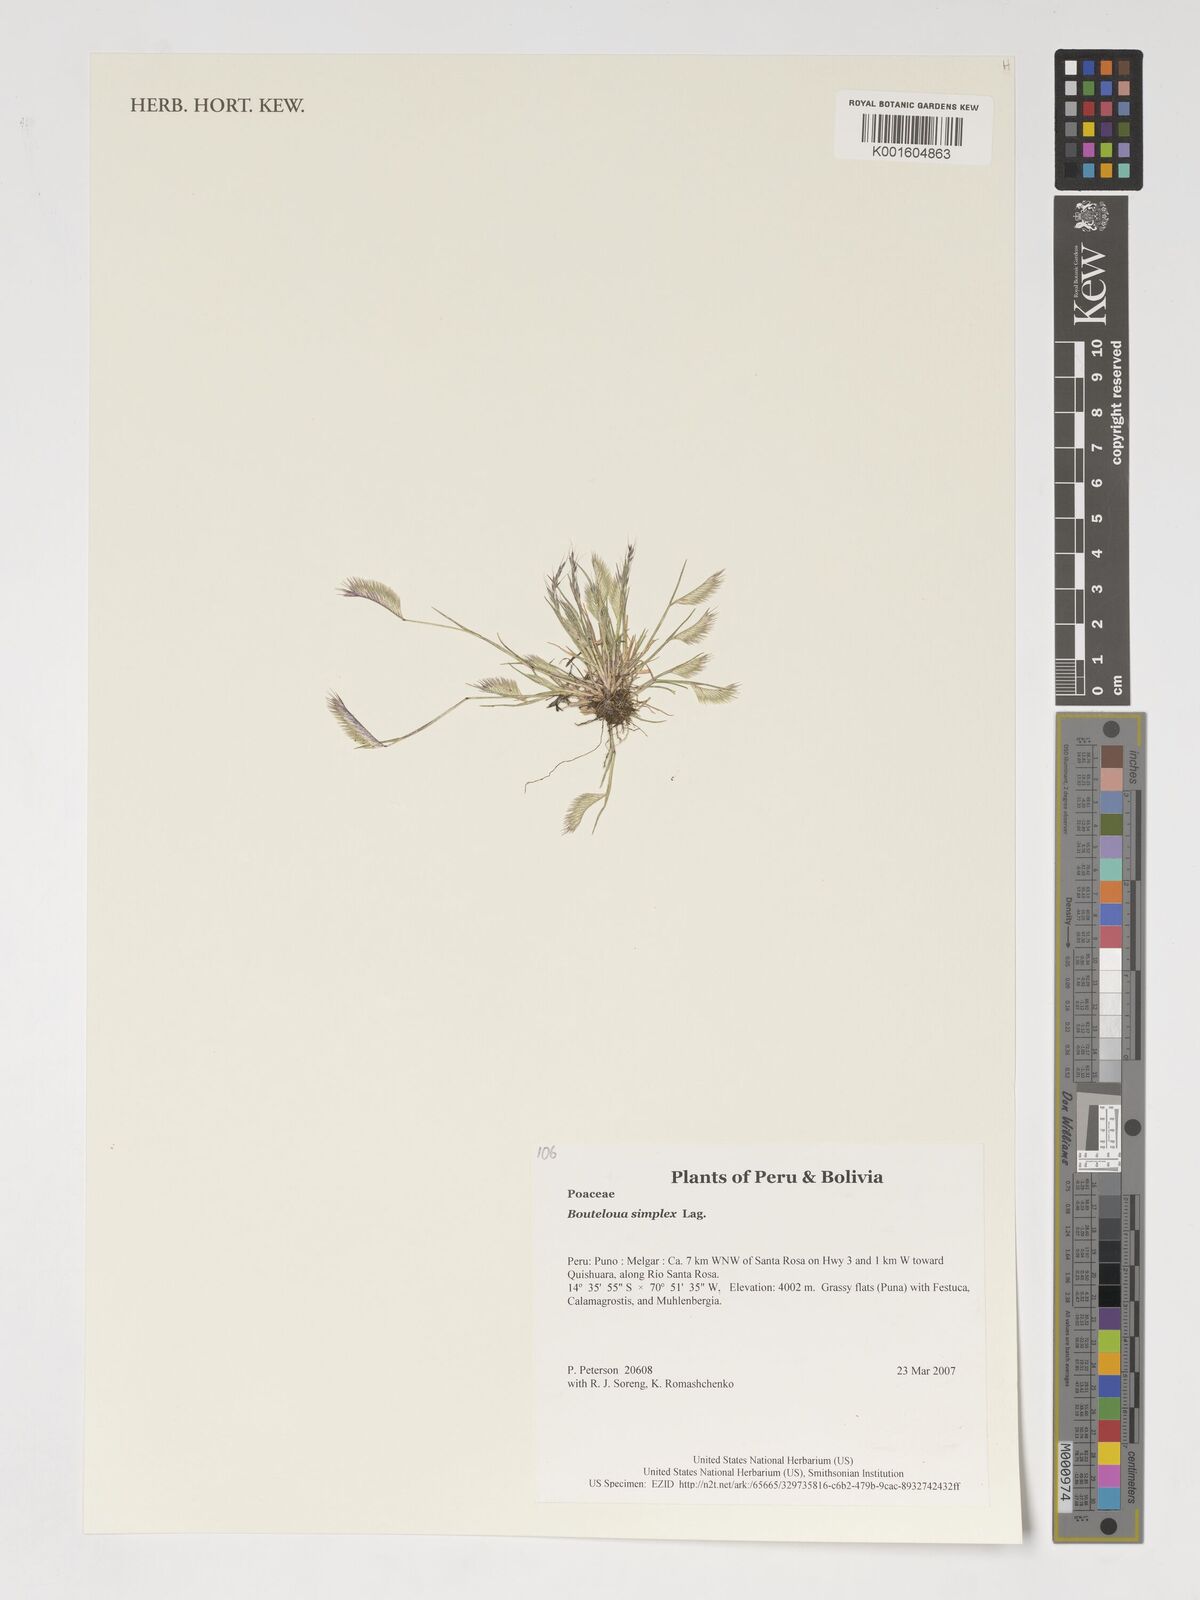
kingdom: Plantae
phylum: Tracheophyta
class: Liliopsida
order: Poales
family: Poaceae
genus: Bouteloua
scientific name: Bouteloua simplex
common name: Mat grama
